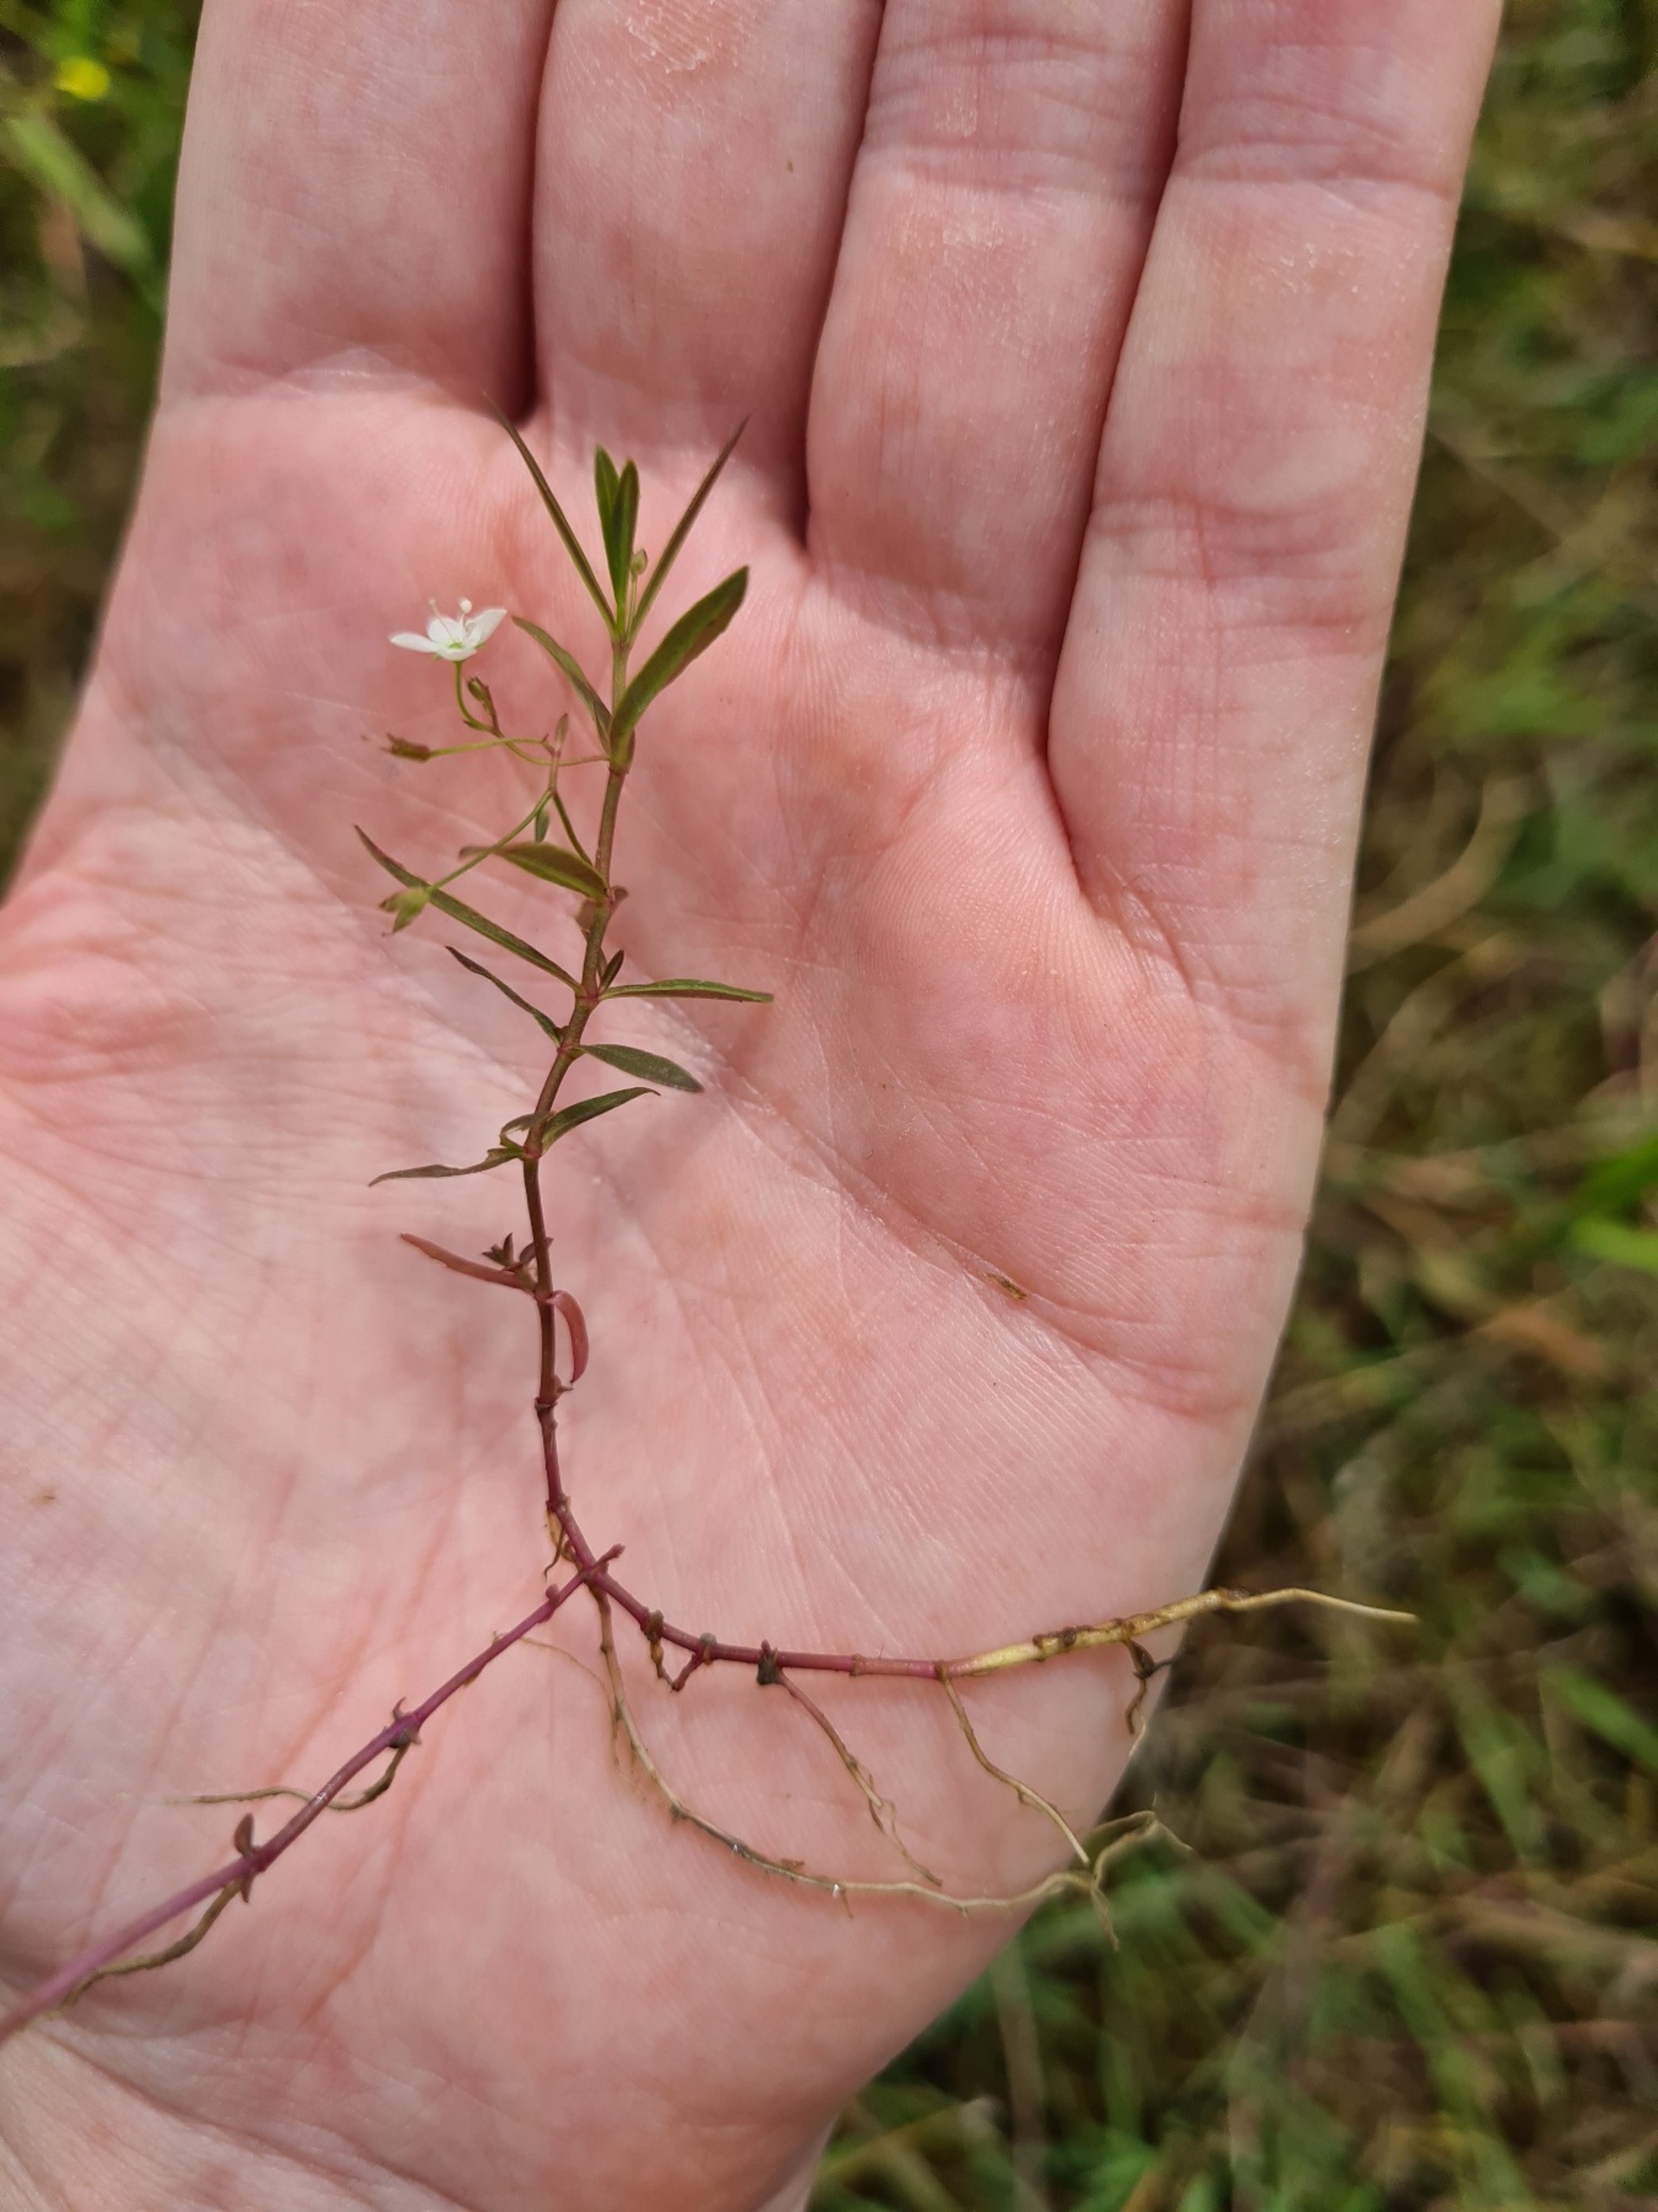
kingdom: Plantae
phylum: Tracheophyta
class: Magnoliopsida
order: Lamiales
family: Plantaginaceae
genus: Veronica
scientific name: Veronica scutellata
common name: Smalbladet ærenpris
